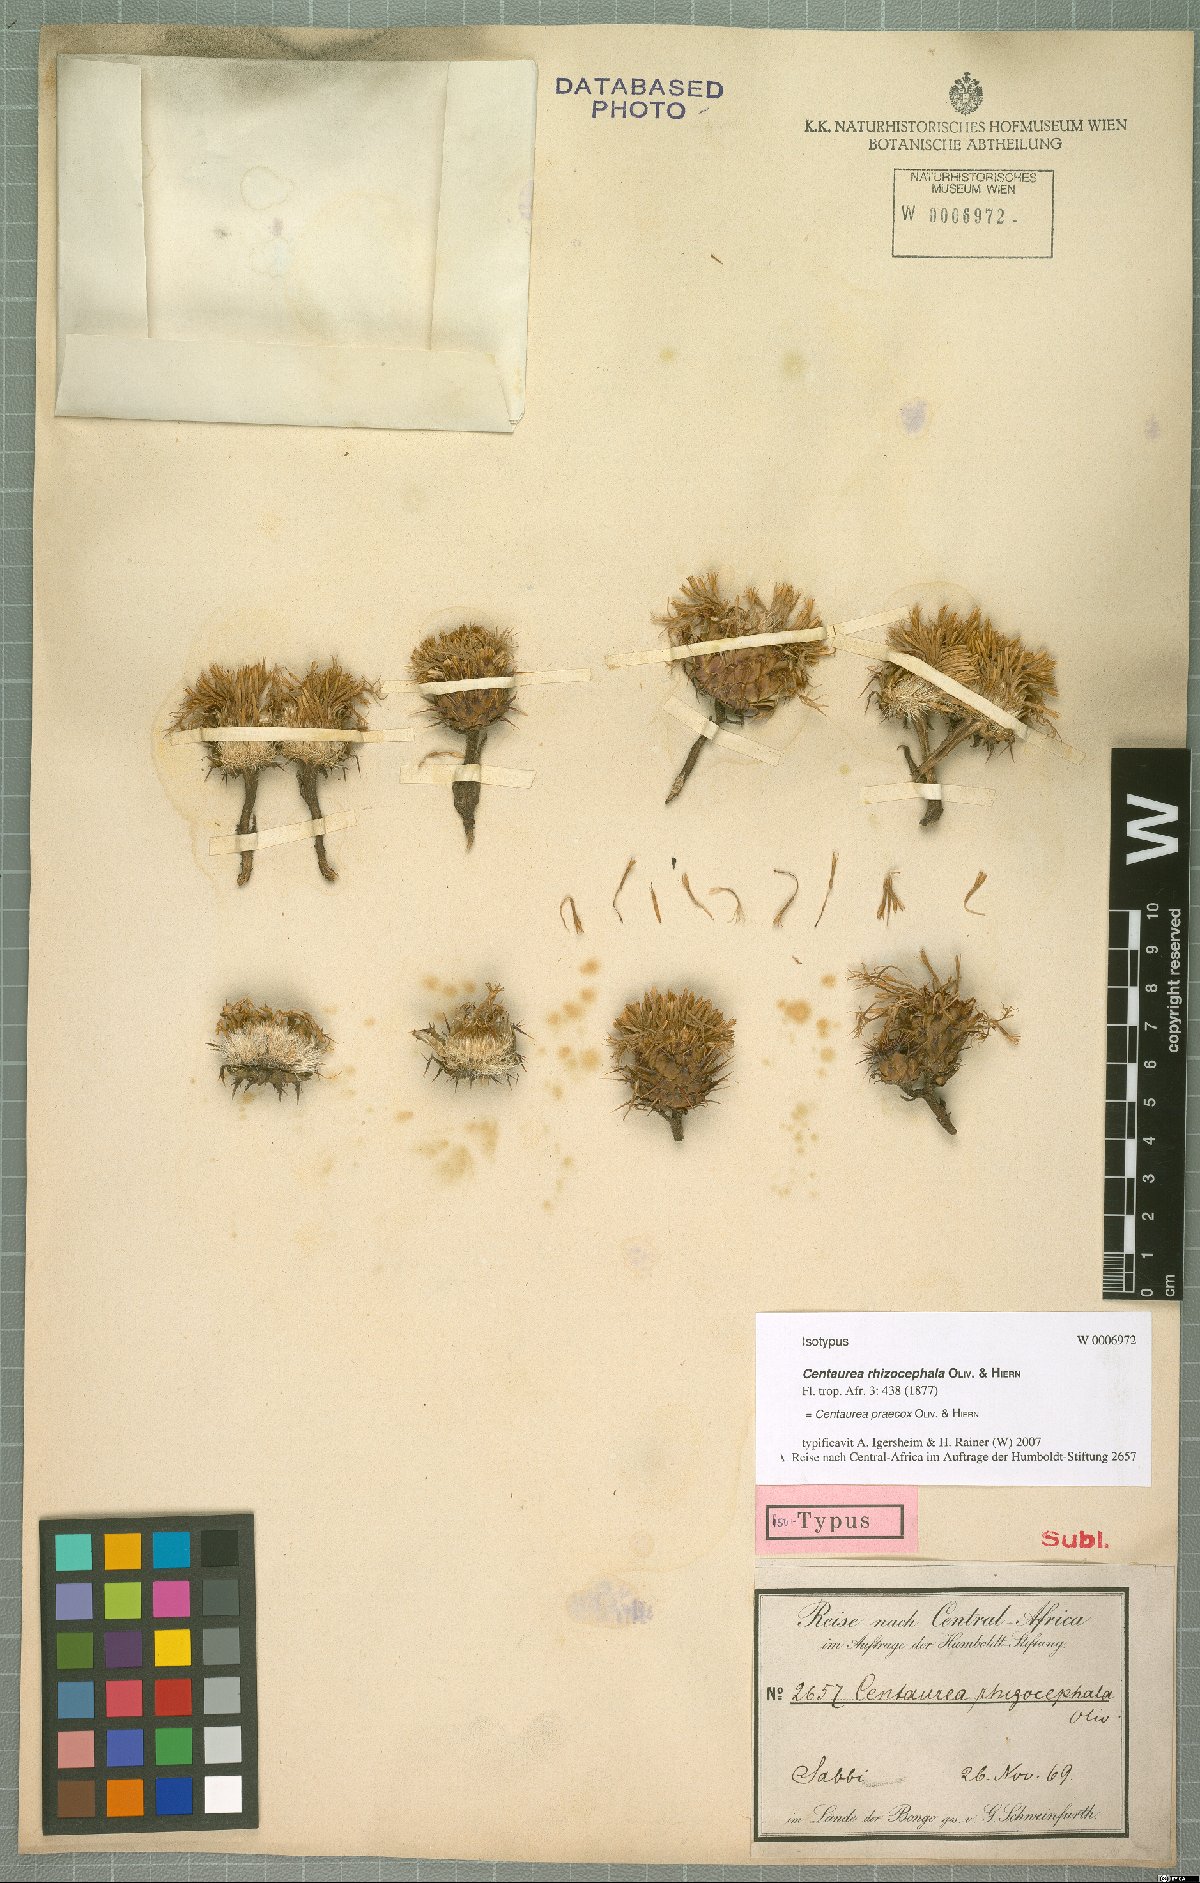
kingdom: Plantae
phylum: Tracheophyta
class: Magnoliopsida
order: Asterales
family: Asteraceae
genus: Centaurea
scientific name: Centaurea praecox
